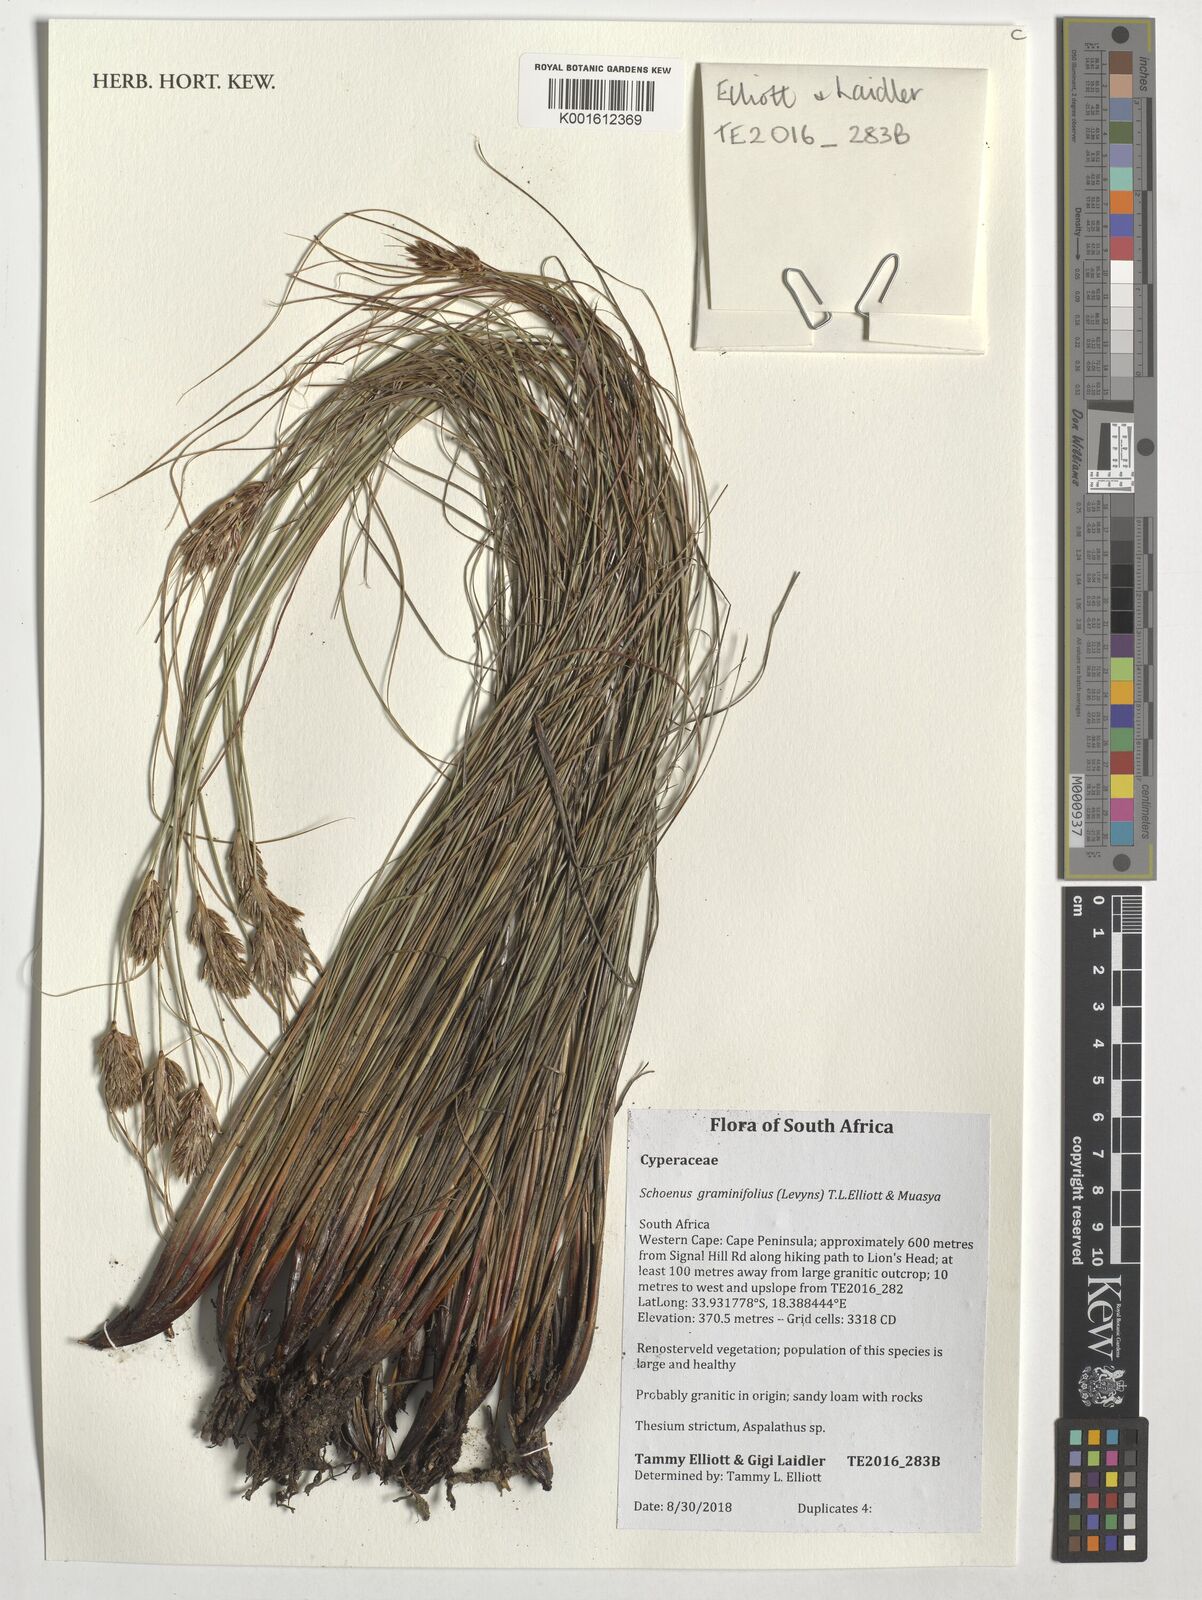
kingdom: Plantae
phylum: Tracheophyta
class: Liliopsida
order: Poales
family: Cyperaceae
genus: Schoenus
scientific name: Schoenus graminifolius
